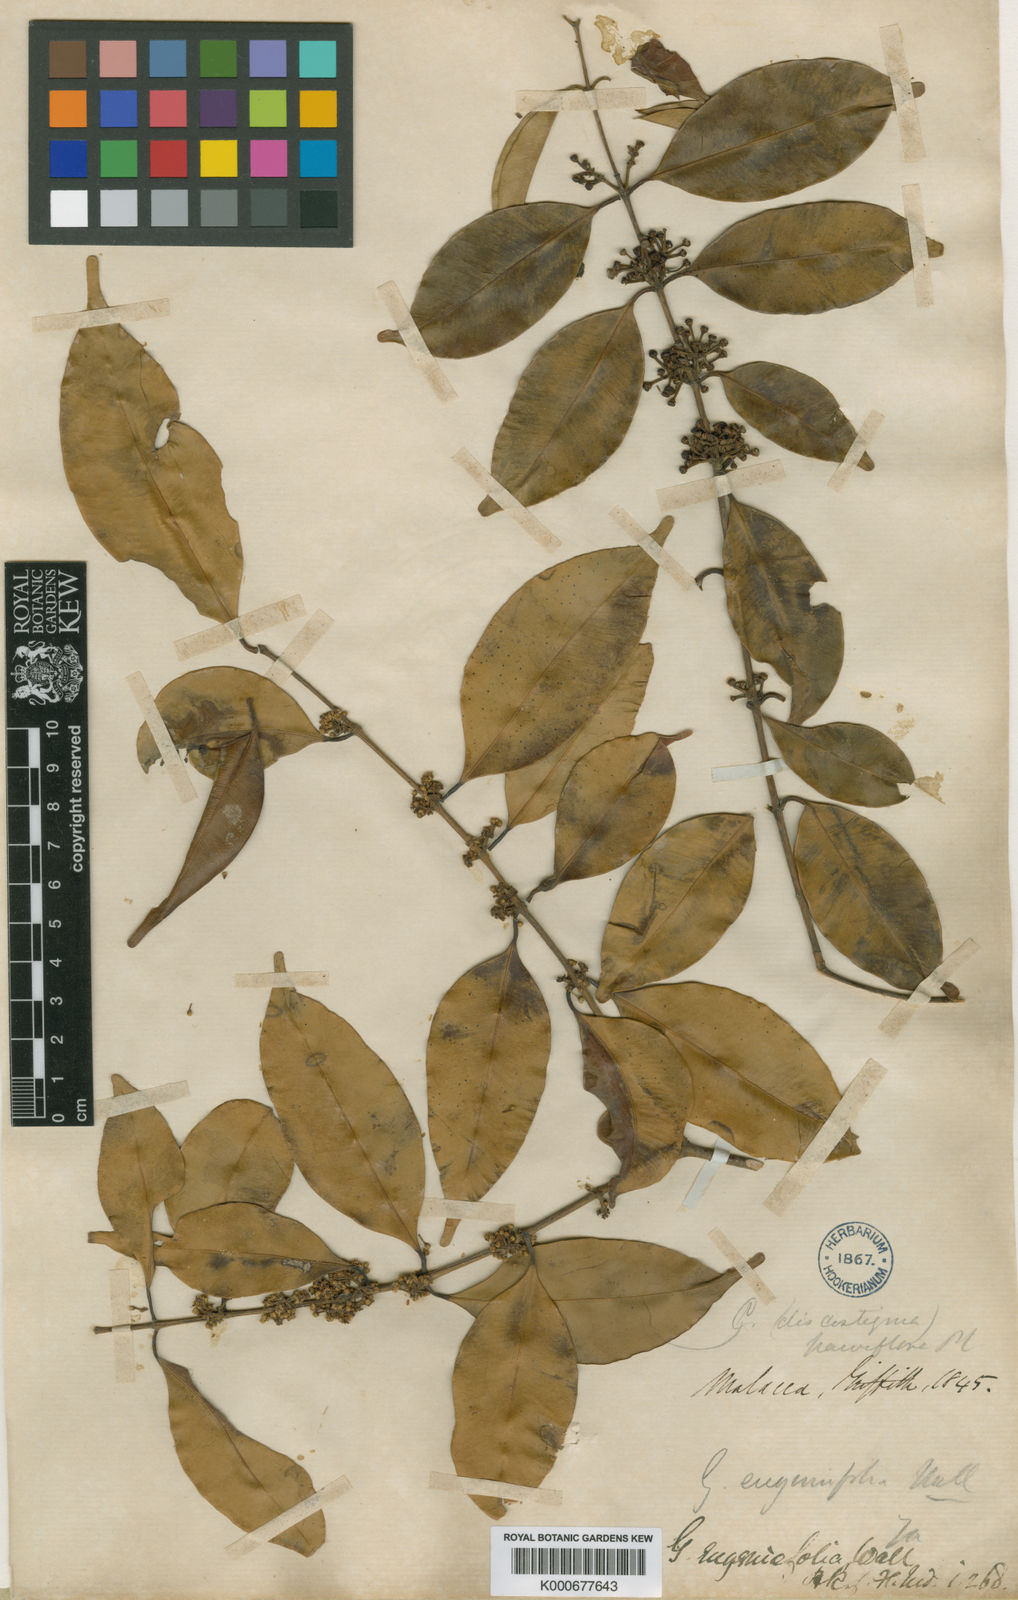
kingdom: Plantae
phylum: Tracheophyta
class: Magnoliopsida
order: Malpighiales
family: Clusiaceae
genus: Garcinia
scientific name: Garcinia
